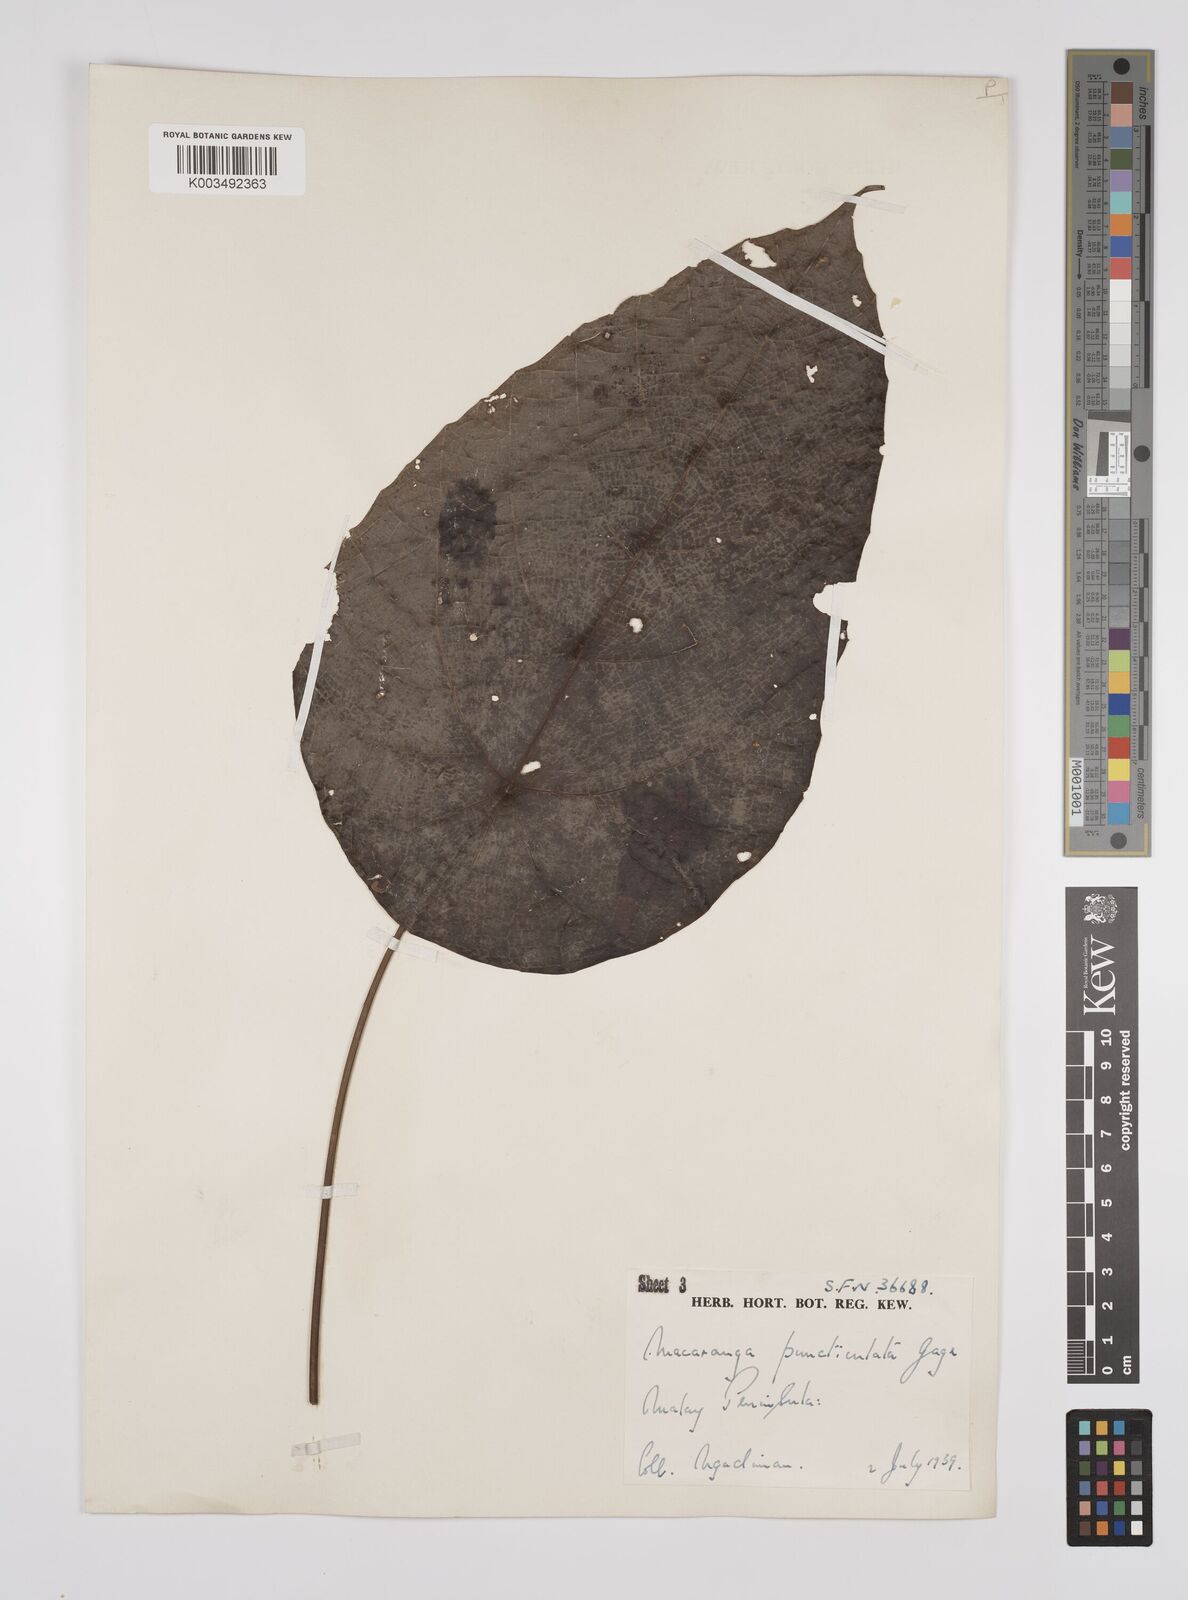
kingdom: Plantae
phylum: Tracheophyta
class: Magnoliopsida
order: Malpighiales
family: Euphorbiaceae
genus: Macaranga
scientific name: Macaranga puncticulata
